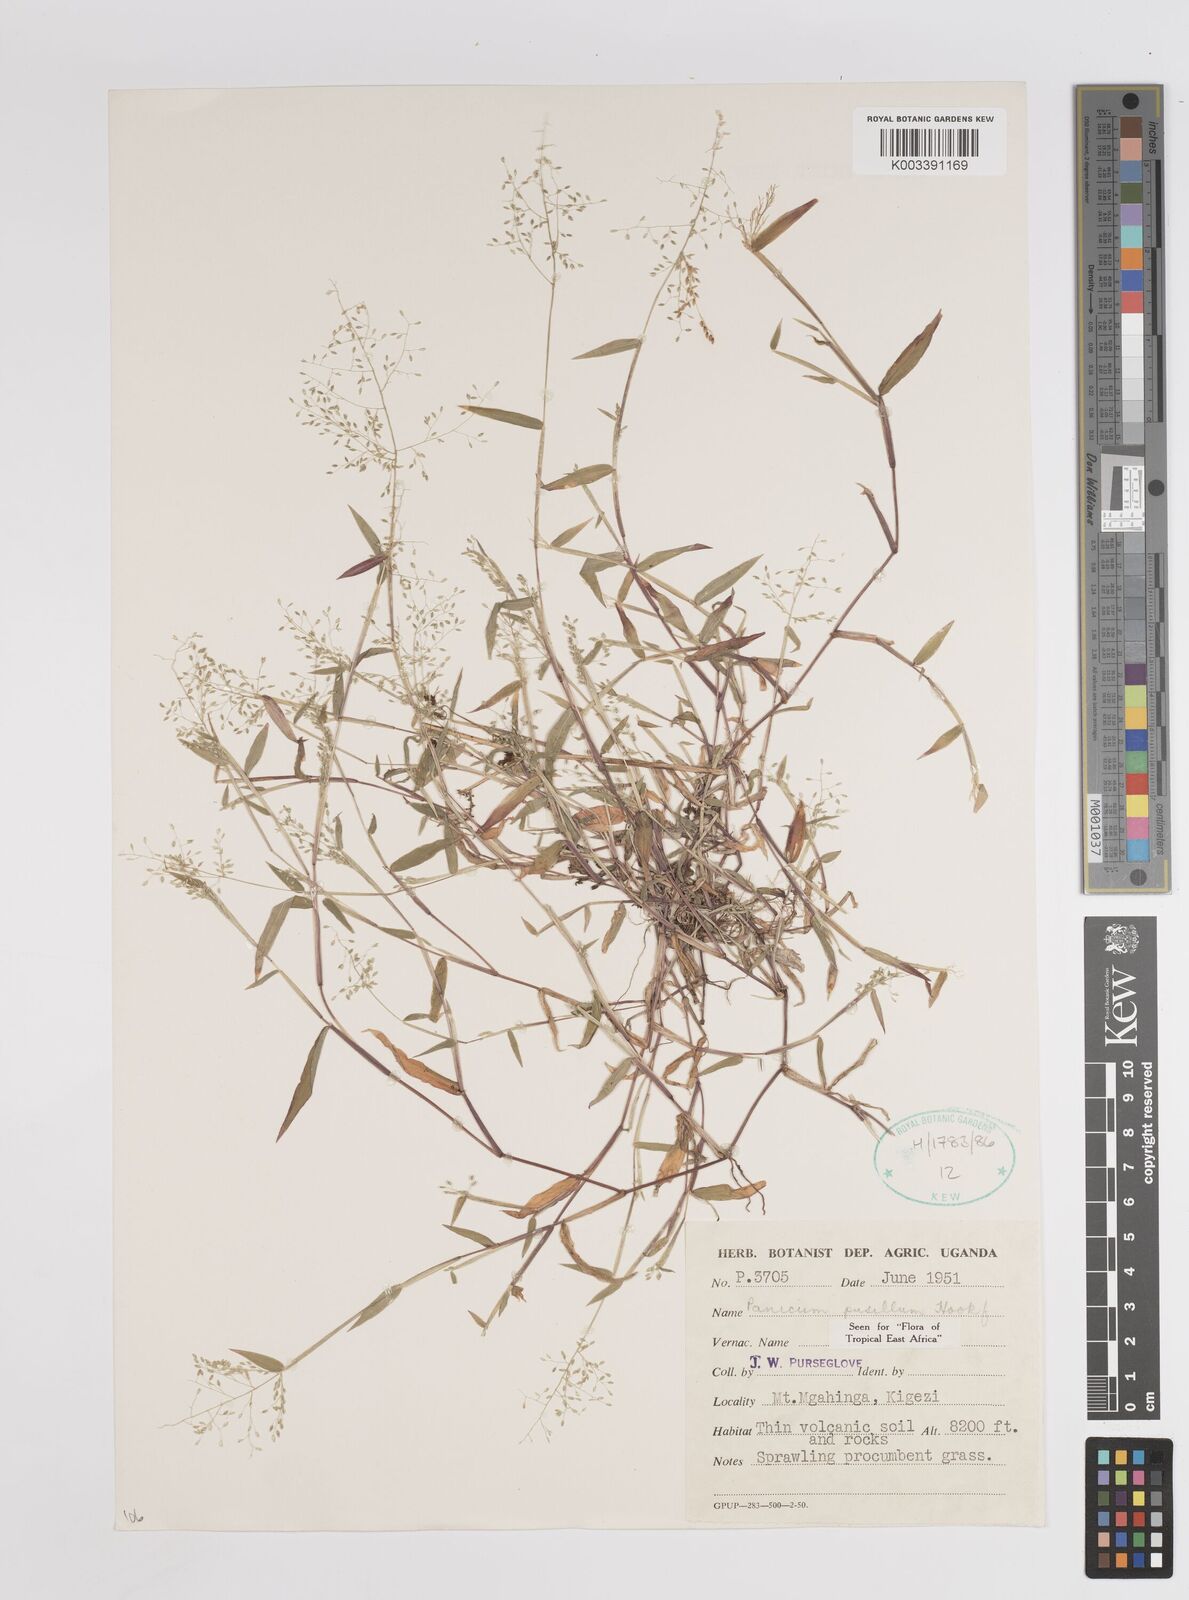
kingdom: Plantae
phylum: Tracheophyta
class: Liliopsida
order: Poales
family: Poaceae
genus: Panicum
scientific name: Panicum pusillum
